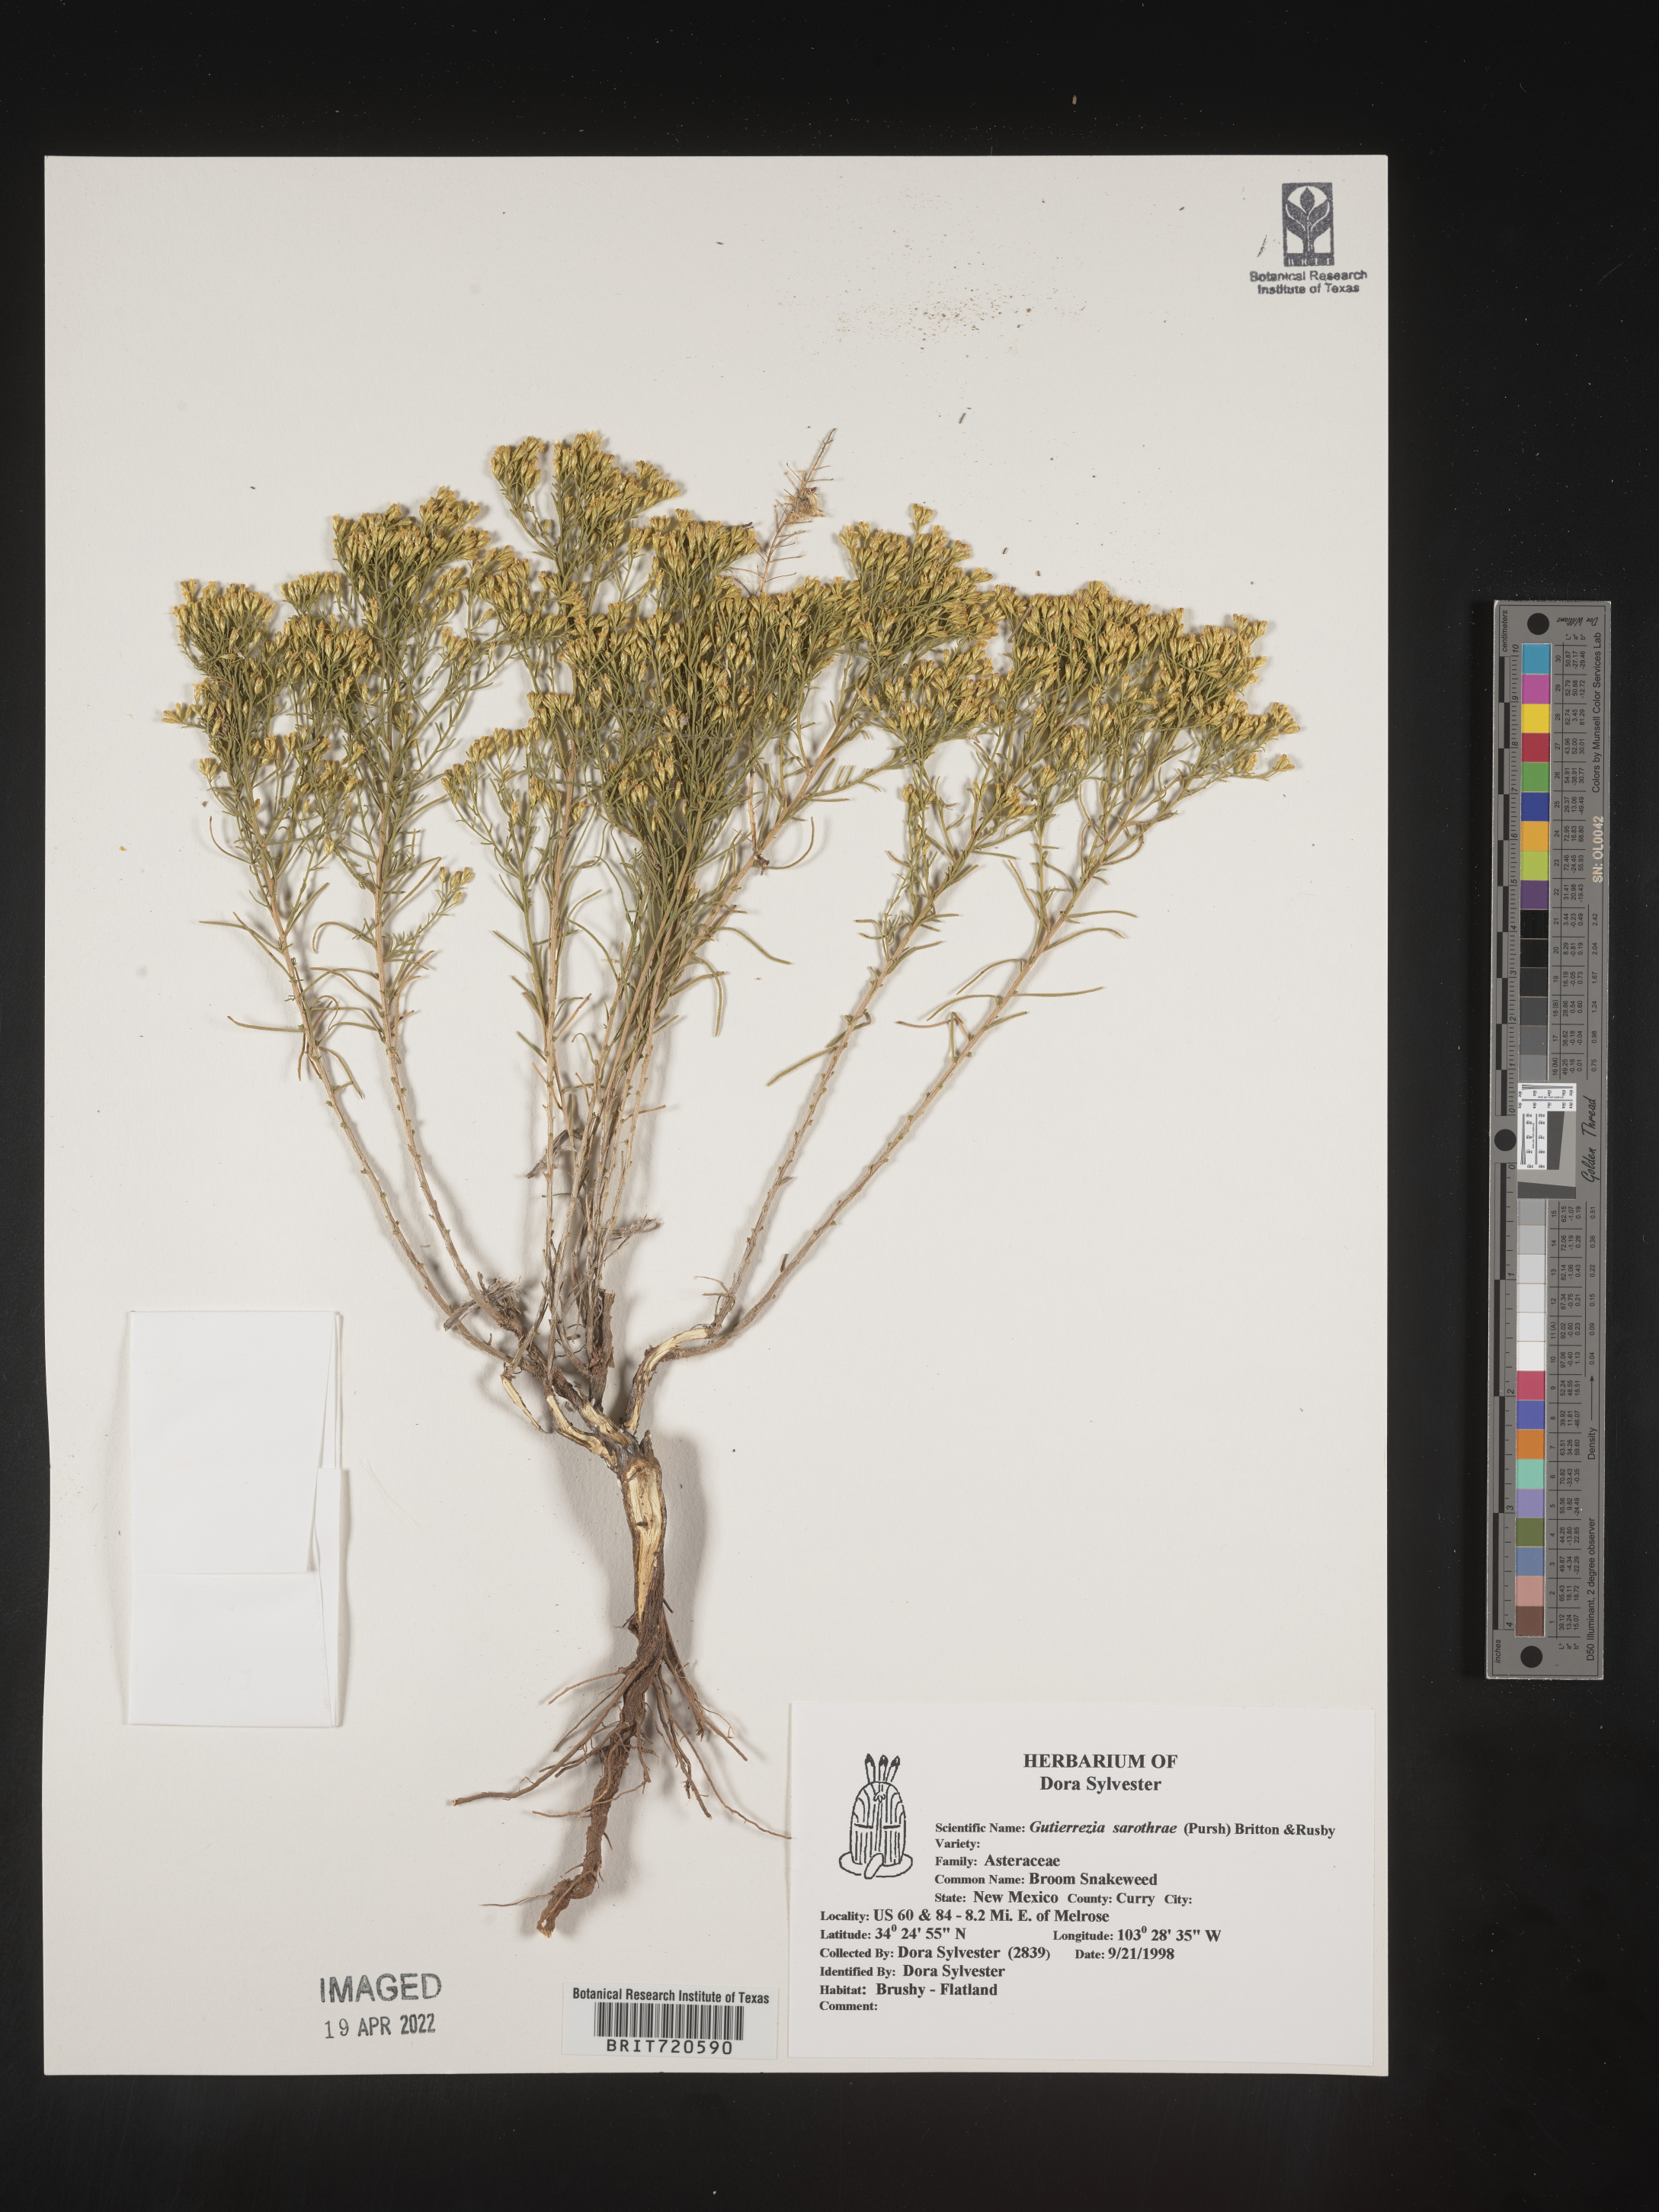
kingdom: Plantae
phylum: Tracheophyta
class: Magnoliopsida
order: Asterales
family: Asteraceae
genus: Gutierrezia
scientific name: Gutierrezia sarothrae
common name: Broom snakeweed
